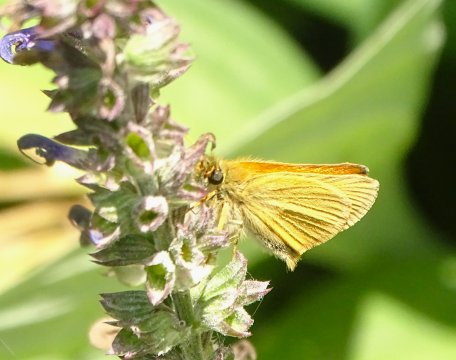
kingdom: Animalia
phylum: Arthropoda
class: Insecta
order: Lepidoptera
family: Hesperiidae
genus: Thymelicus
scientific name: Thymelicus lineola
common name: European Skipper
